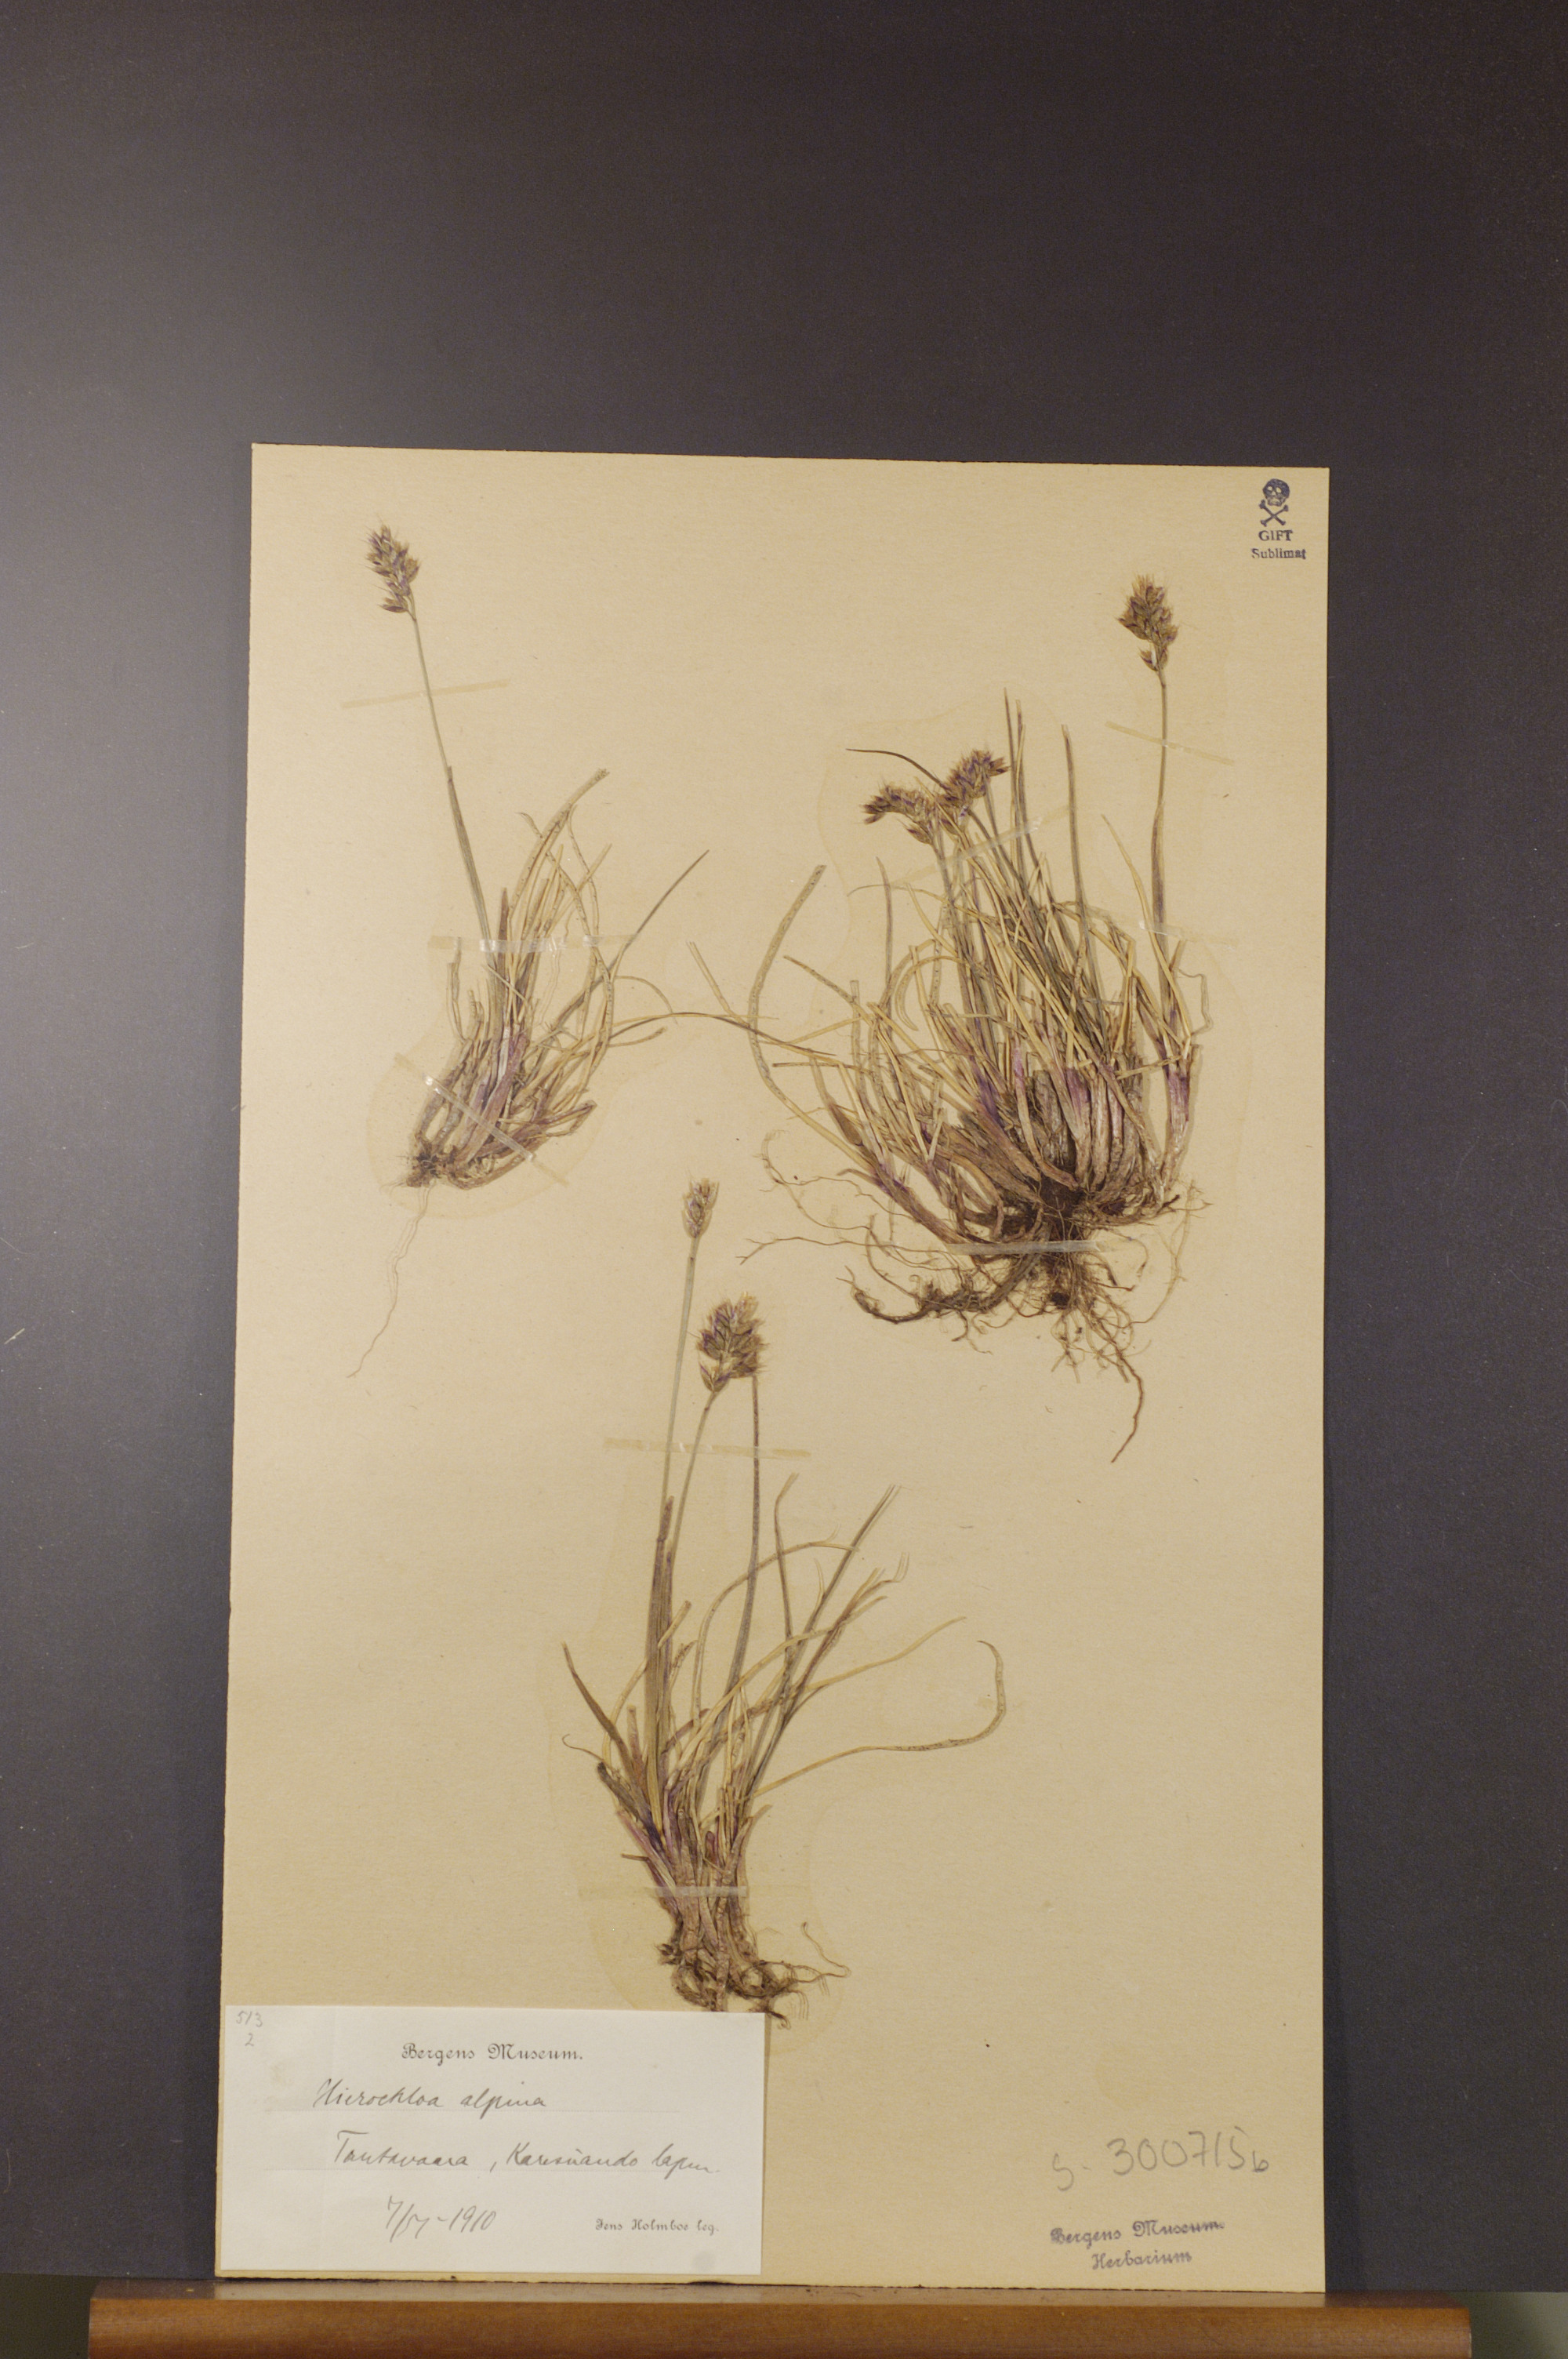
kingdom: Plantae
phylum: Tracheophyta
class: Liliopsida
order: Poales
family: Poaceae
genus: Anthoxanthum
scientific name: Anthoxanthum monticola
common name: Alpine sweetgrass
